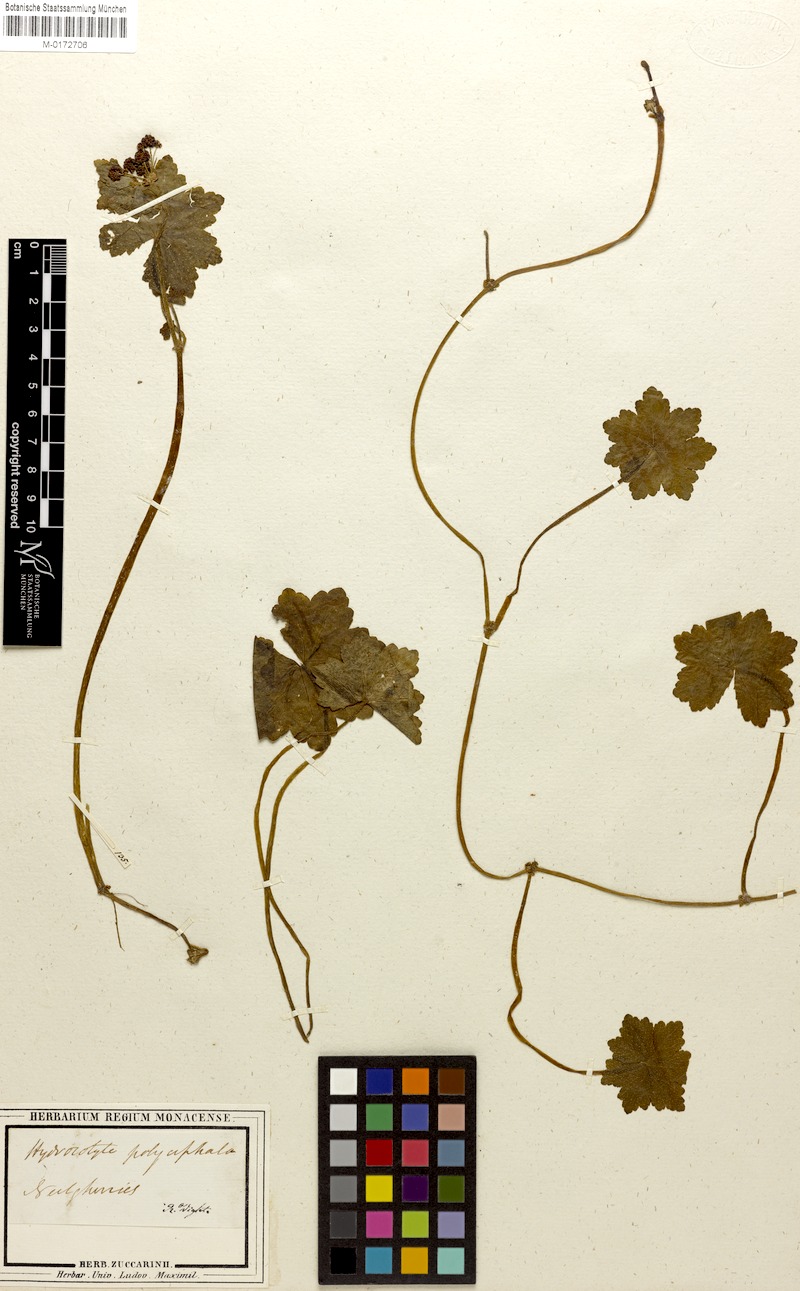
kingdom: Plantae
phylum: Tracheophyta
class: Magnoliopsida
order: Apiales
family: Araliaceae
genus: Hydrocotyle
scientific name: Hydrocotyle javanica
